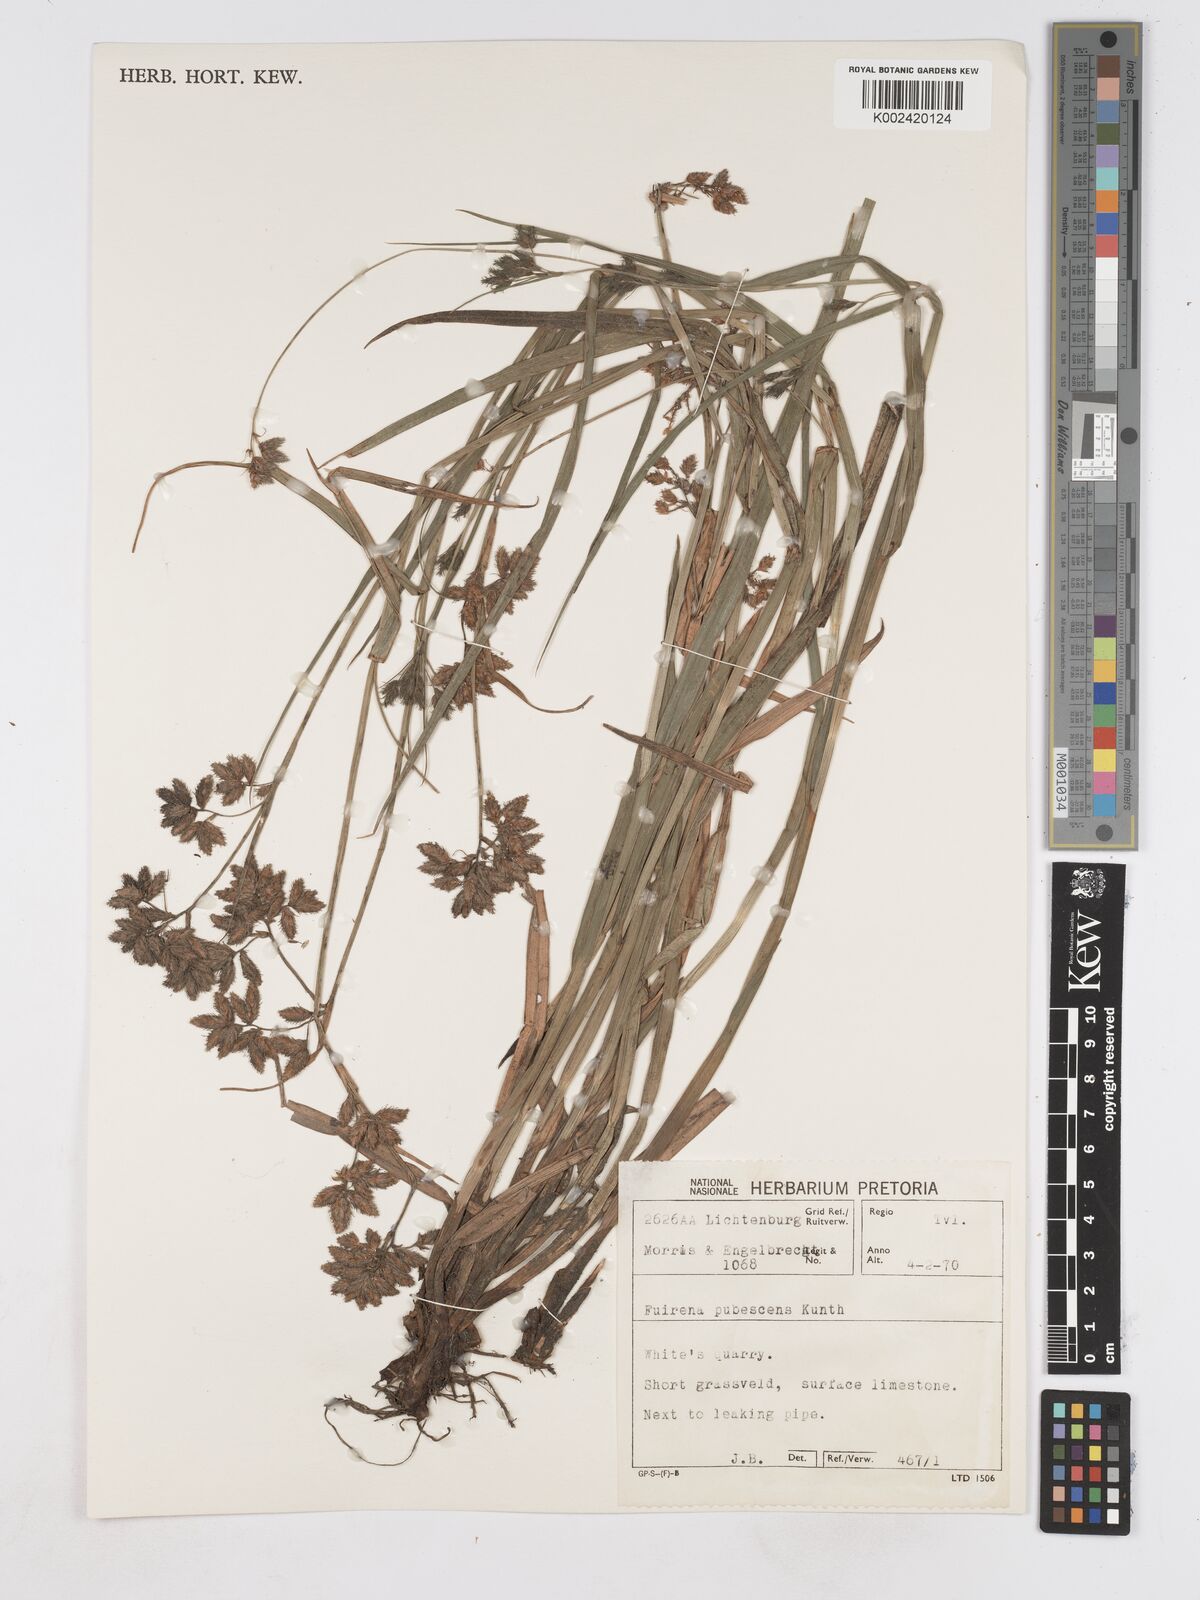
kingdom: Plantae
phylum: Tracheophyta
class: Liliopsida
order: Poales
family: Cyperaceae
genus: Fuirena
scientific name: Fuirena pubescens
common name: Hairy sedge
